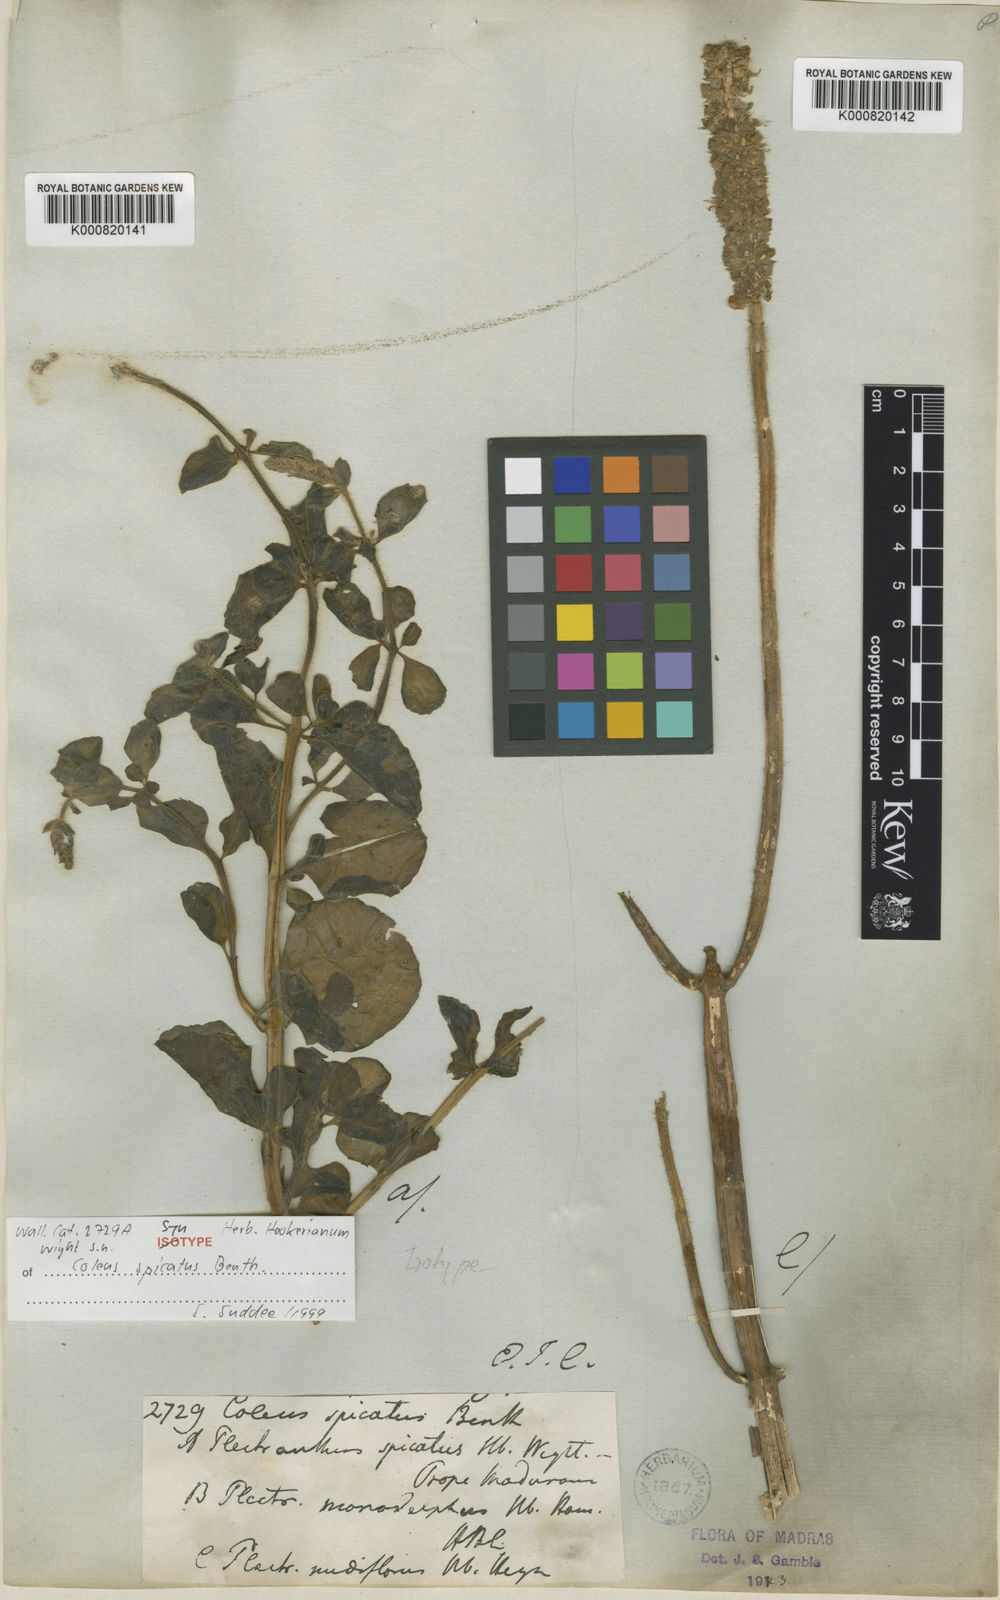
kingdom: Plantae
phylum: Tracheophyta
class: Magnoliopsida
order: Lamiales
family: Lamiaceae
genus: Coleus
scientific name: Coleus caninus
